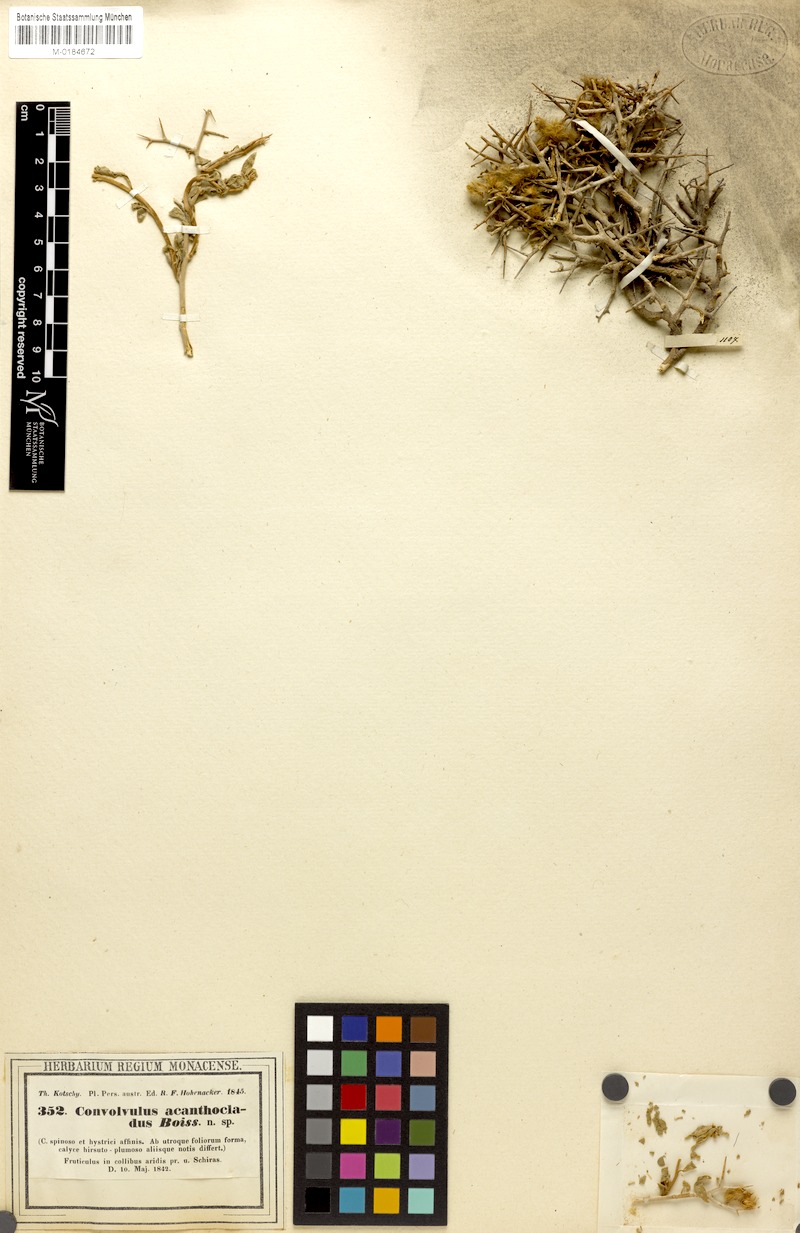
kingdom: Plantae
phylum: Tracheophyta
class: Magnoliopsida
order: Solanales
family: Convolvulaceae
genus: Convolvulus
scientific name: Convolvulus acanthocladus
